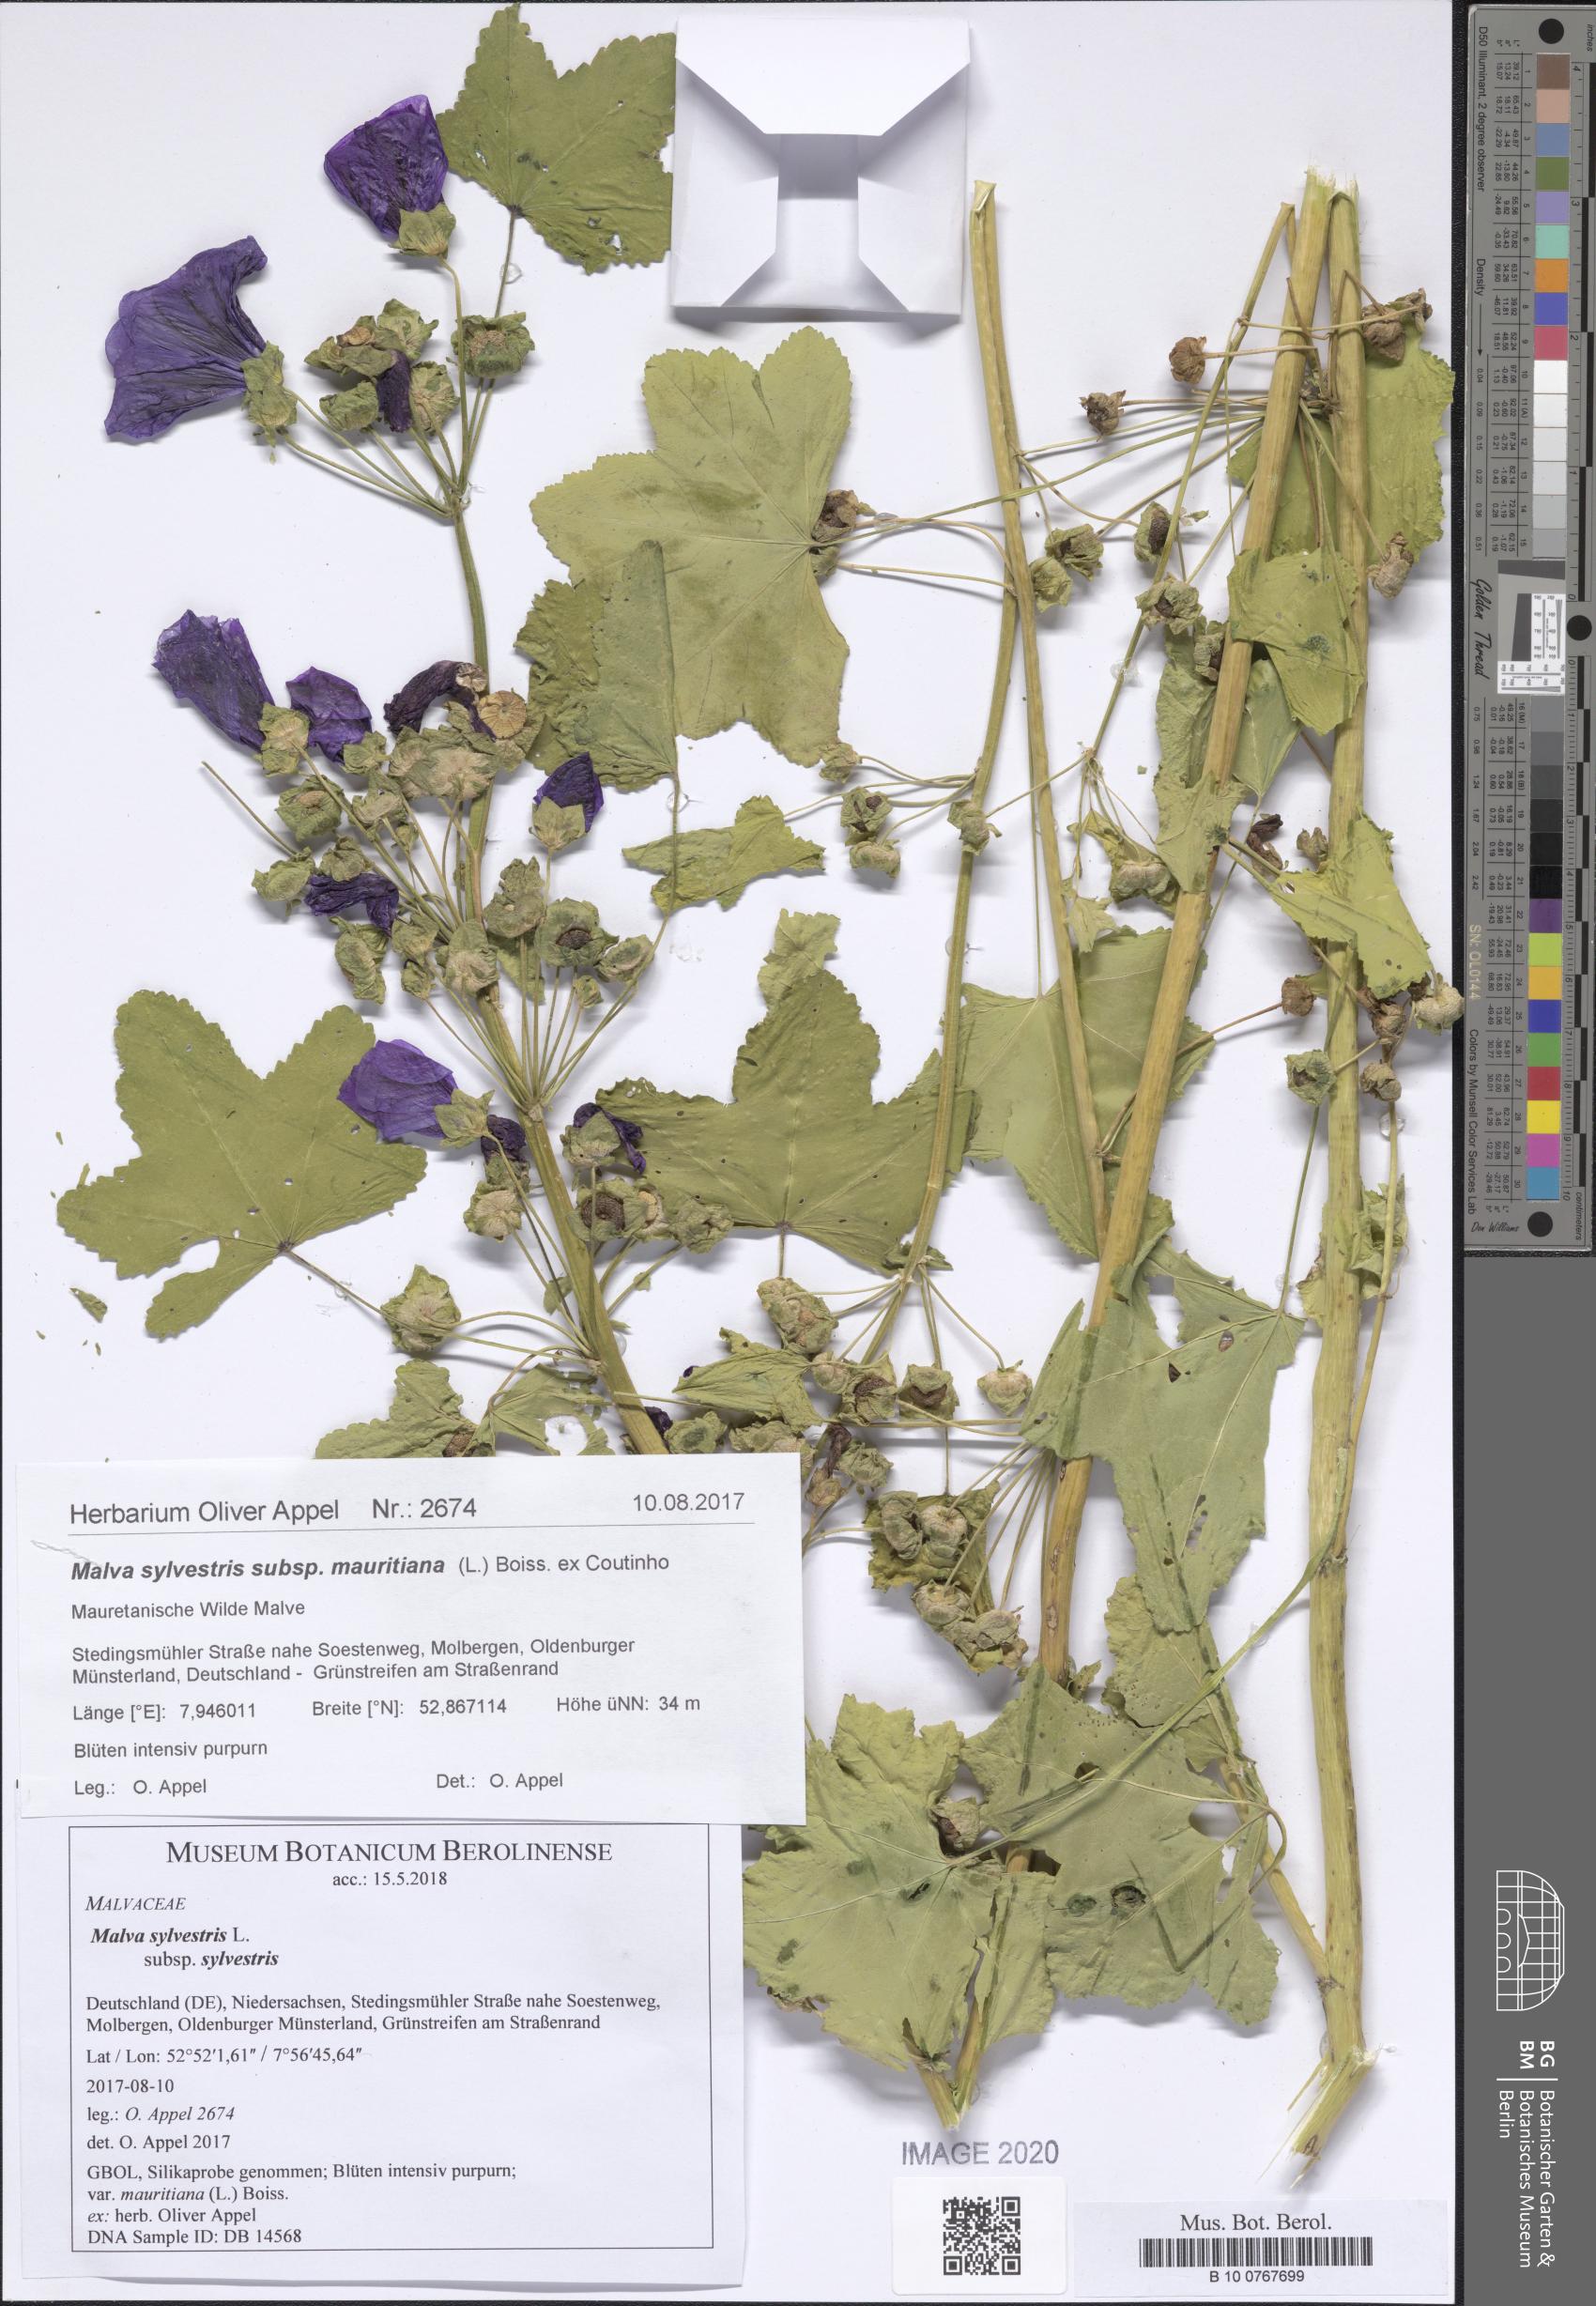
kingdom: Plantae
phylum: Tracheophyta
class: Magnoliopsida
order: Malvales
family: Malvaceae
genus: Malva
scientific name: Malva sylvestris
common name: Common mallow
